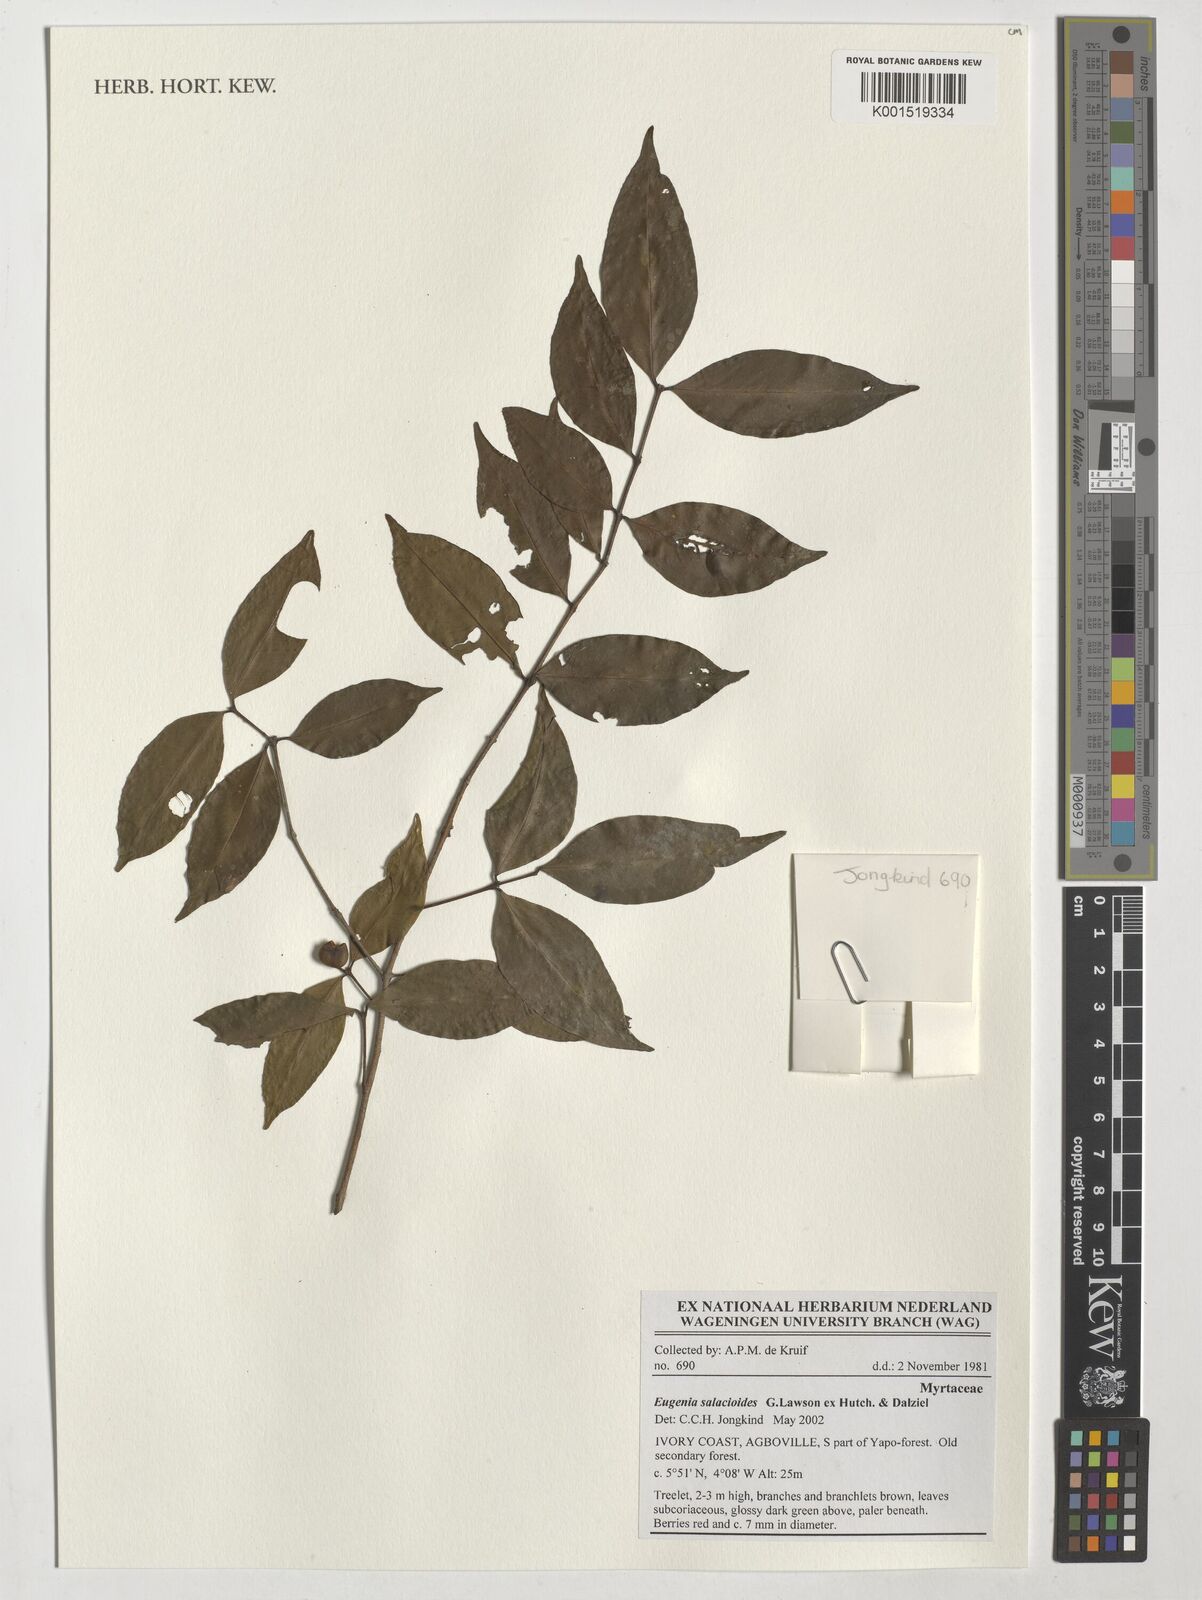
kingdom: Plantae
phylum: Tracheophyta
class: Magnoliopsida
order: Myrtales
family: Myrtaceae
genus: Eugenia
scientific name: Eugenia salacioides
